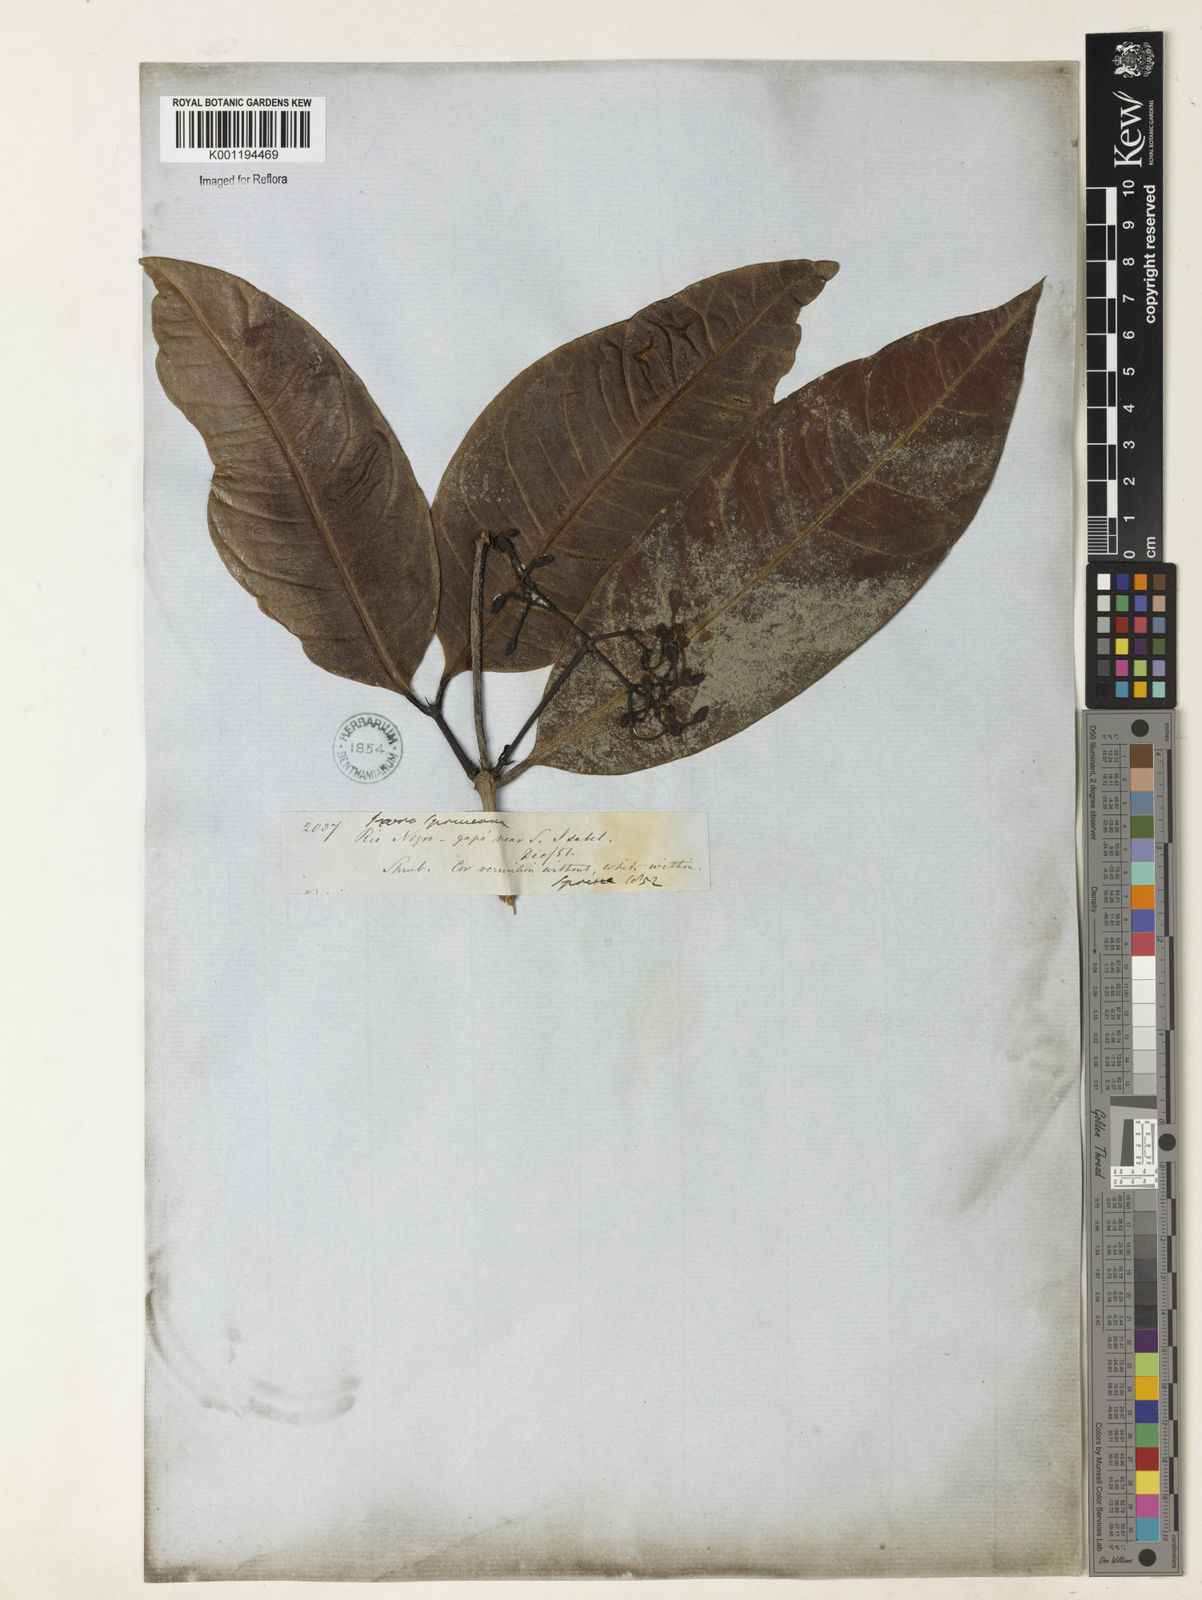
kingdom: Plantae
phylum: Tracheophyta
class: Magnoliopsida
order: Gentianales
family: Rubiaceae
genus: Ixora
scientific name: Ixora
